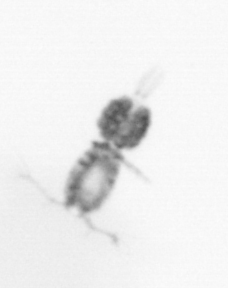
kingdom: Animalia
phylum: Arthropoda
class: Copepoda
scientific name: Copepoda
